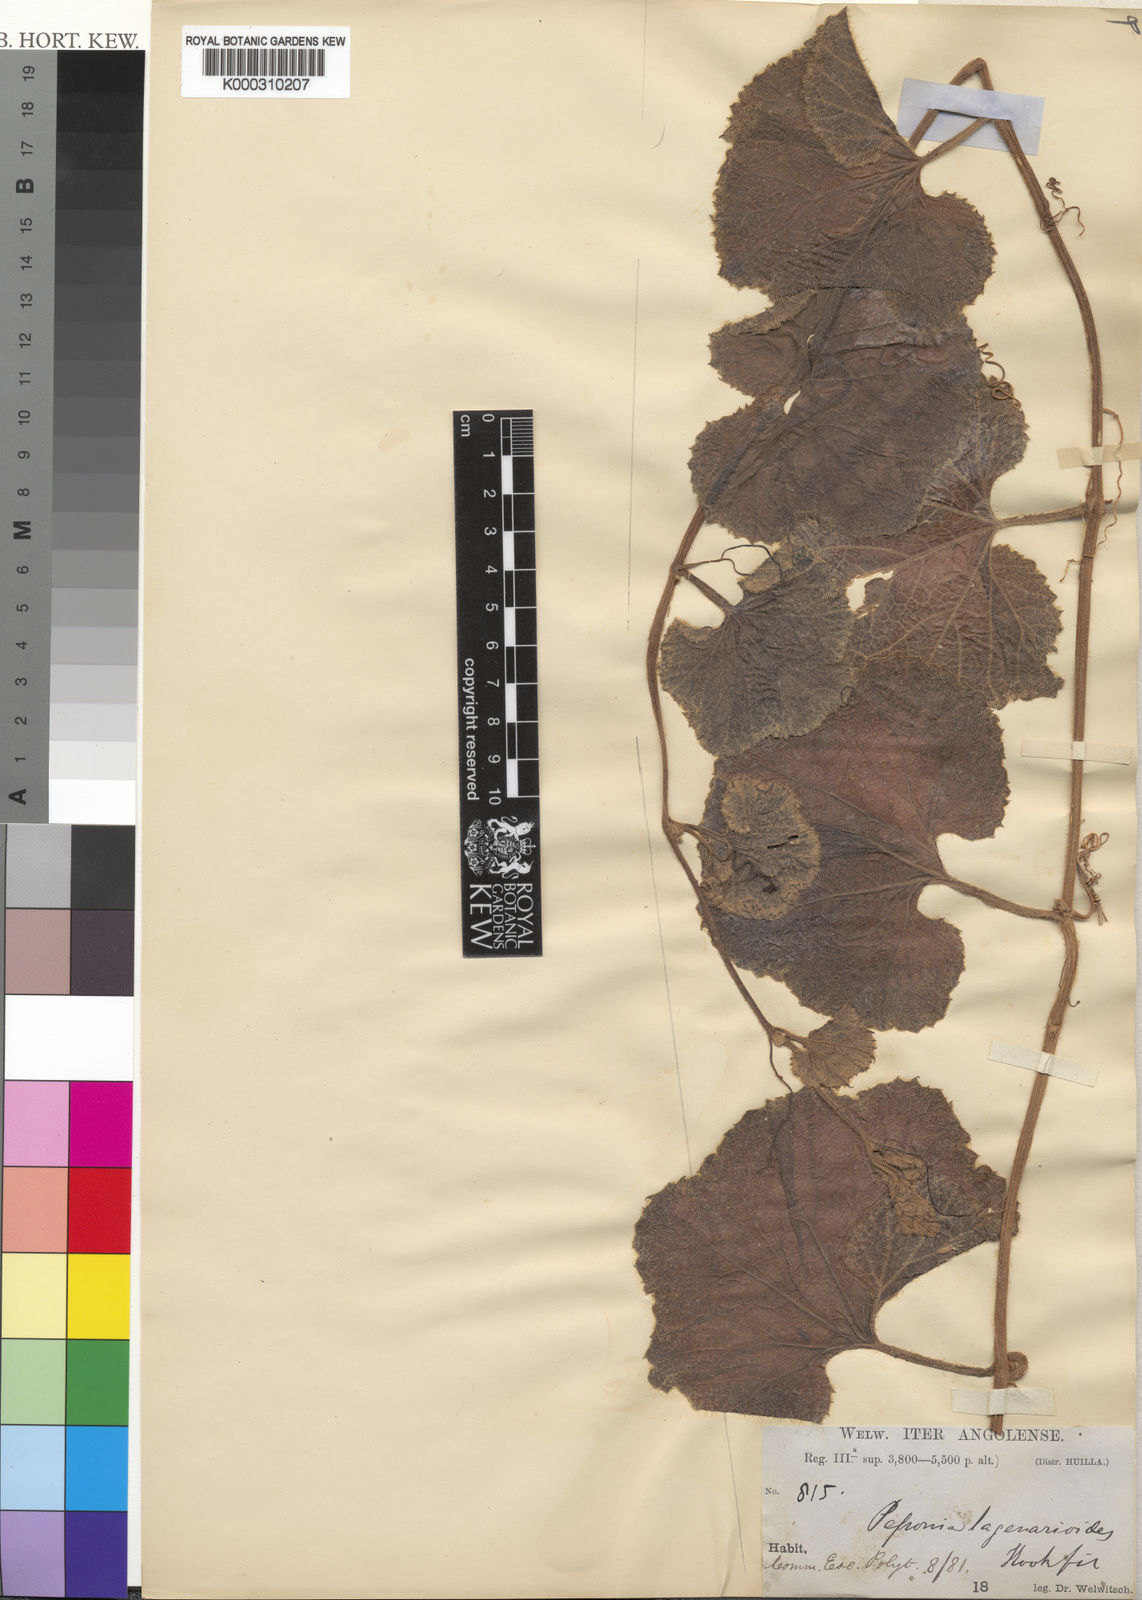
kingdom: Plantae
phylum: Tracheophyta
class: Magnoliopsida
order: Cucurbitales
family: Cucurbitaceae
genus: Peponium
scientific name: Peponium lagenarioides
